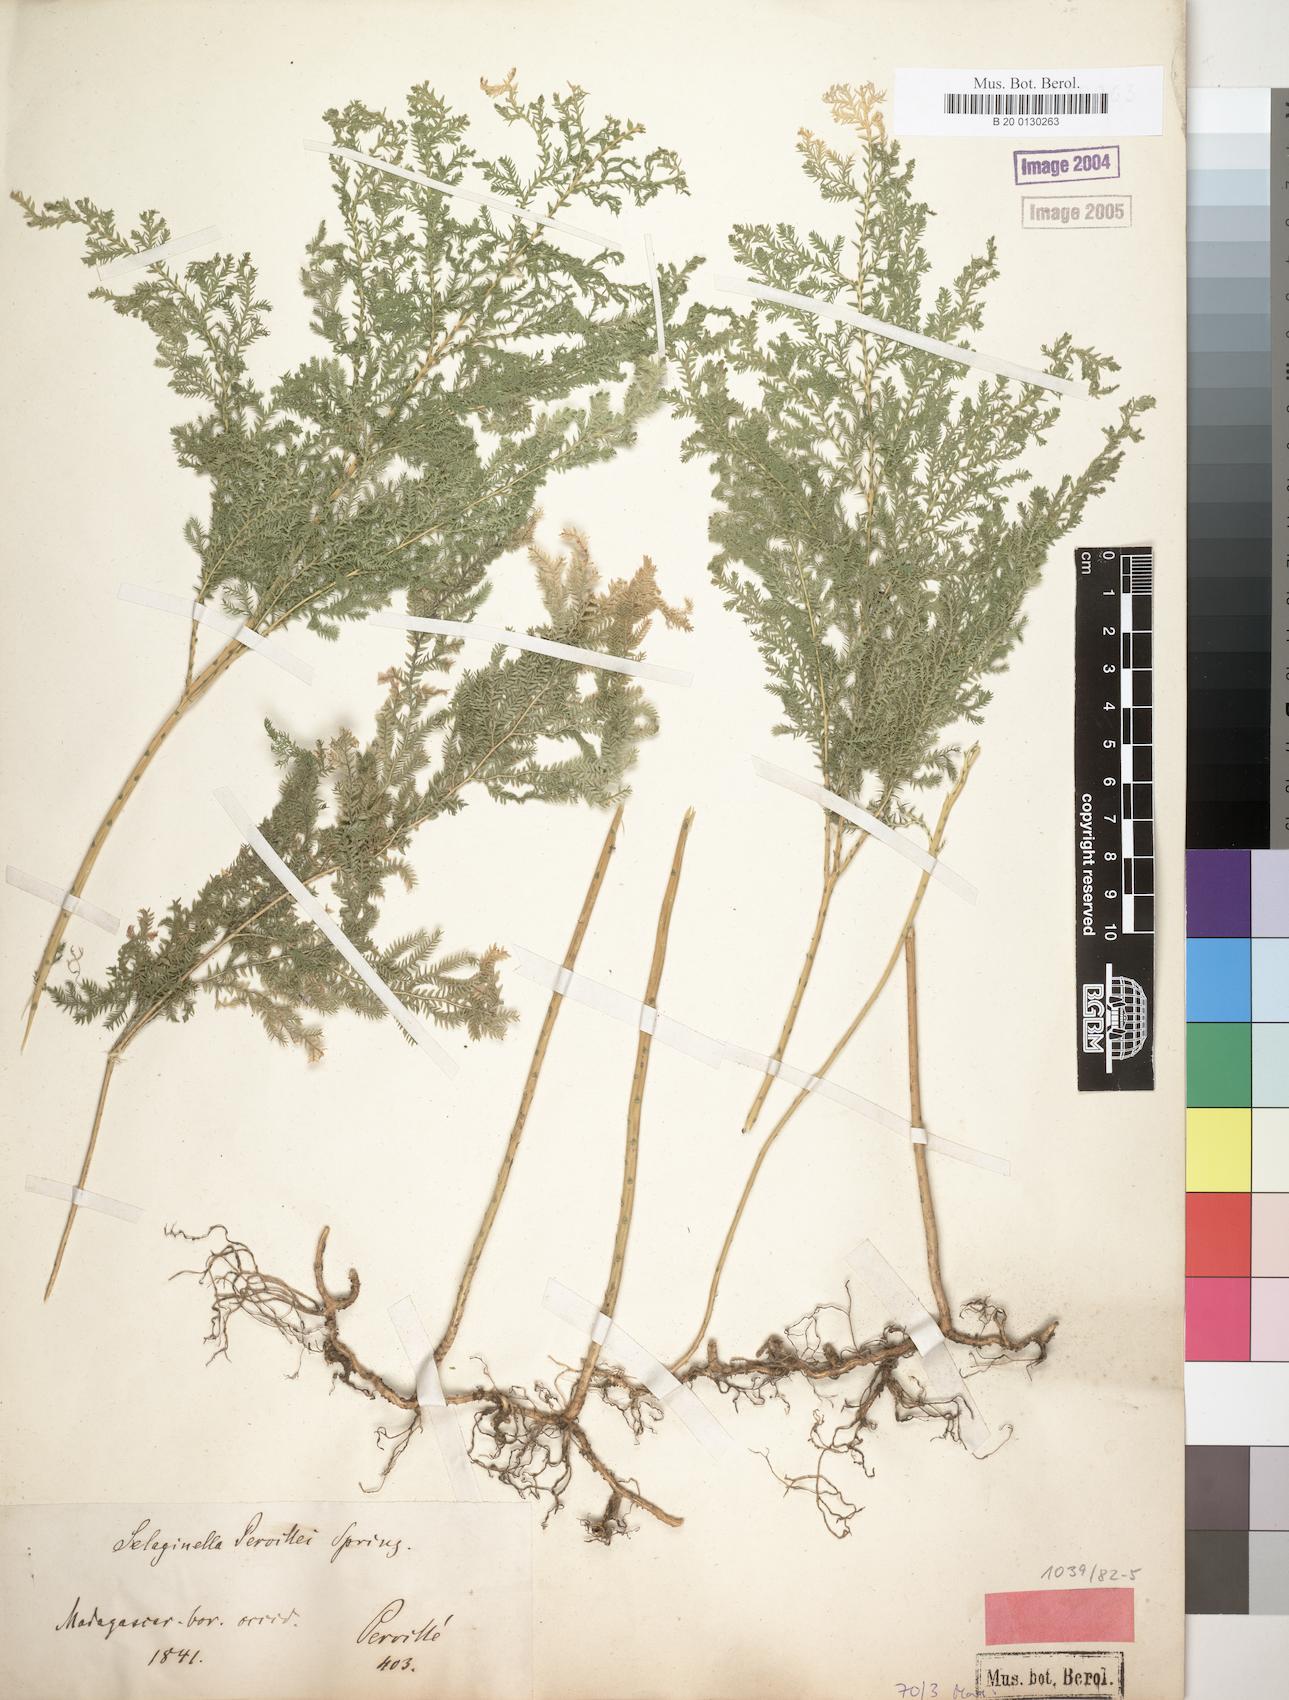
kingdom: Plantae
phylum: Tracheophyta
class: Lycopodiopsida
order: Selaginellales
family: Selaginellaceae
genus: Selaginella
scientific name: Selaginella pervillei
